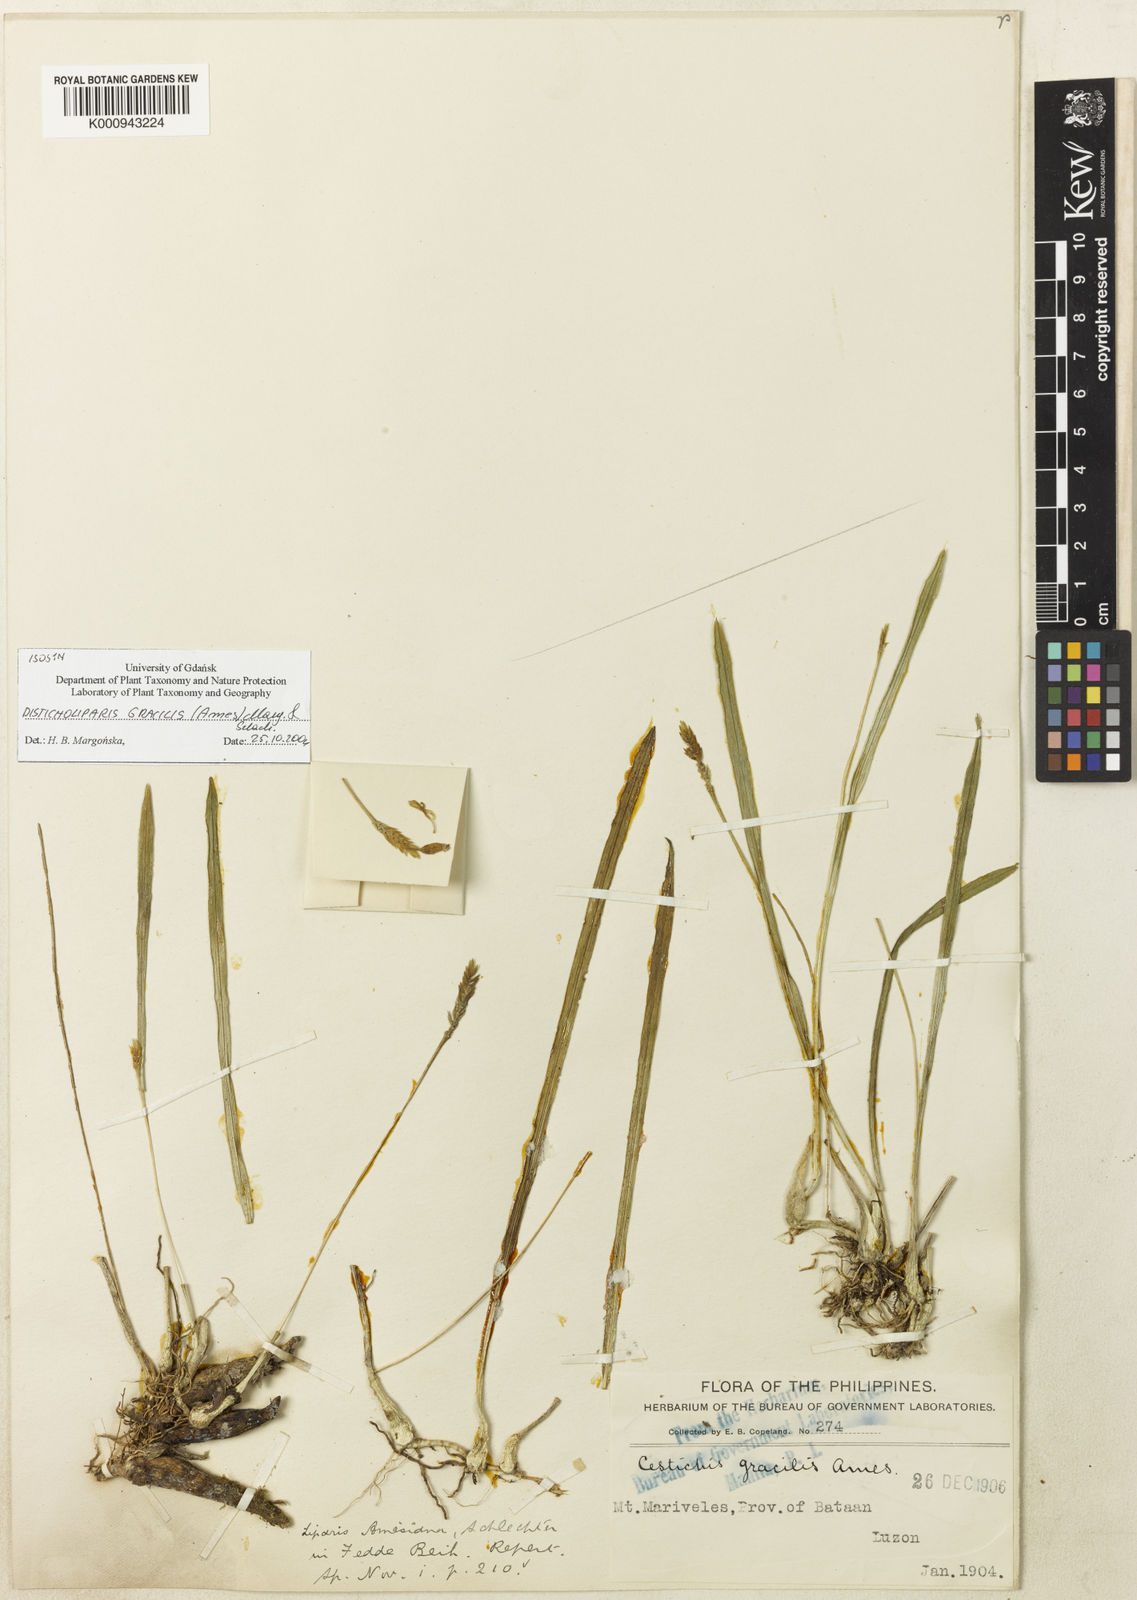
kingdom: Plantae
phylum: Tracheophyta
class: Liliopsida
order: Asparagales
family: Orchidaceae
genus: Liparis
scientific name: Liparis amesiana
